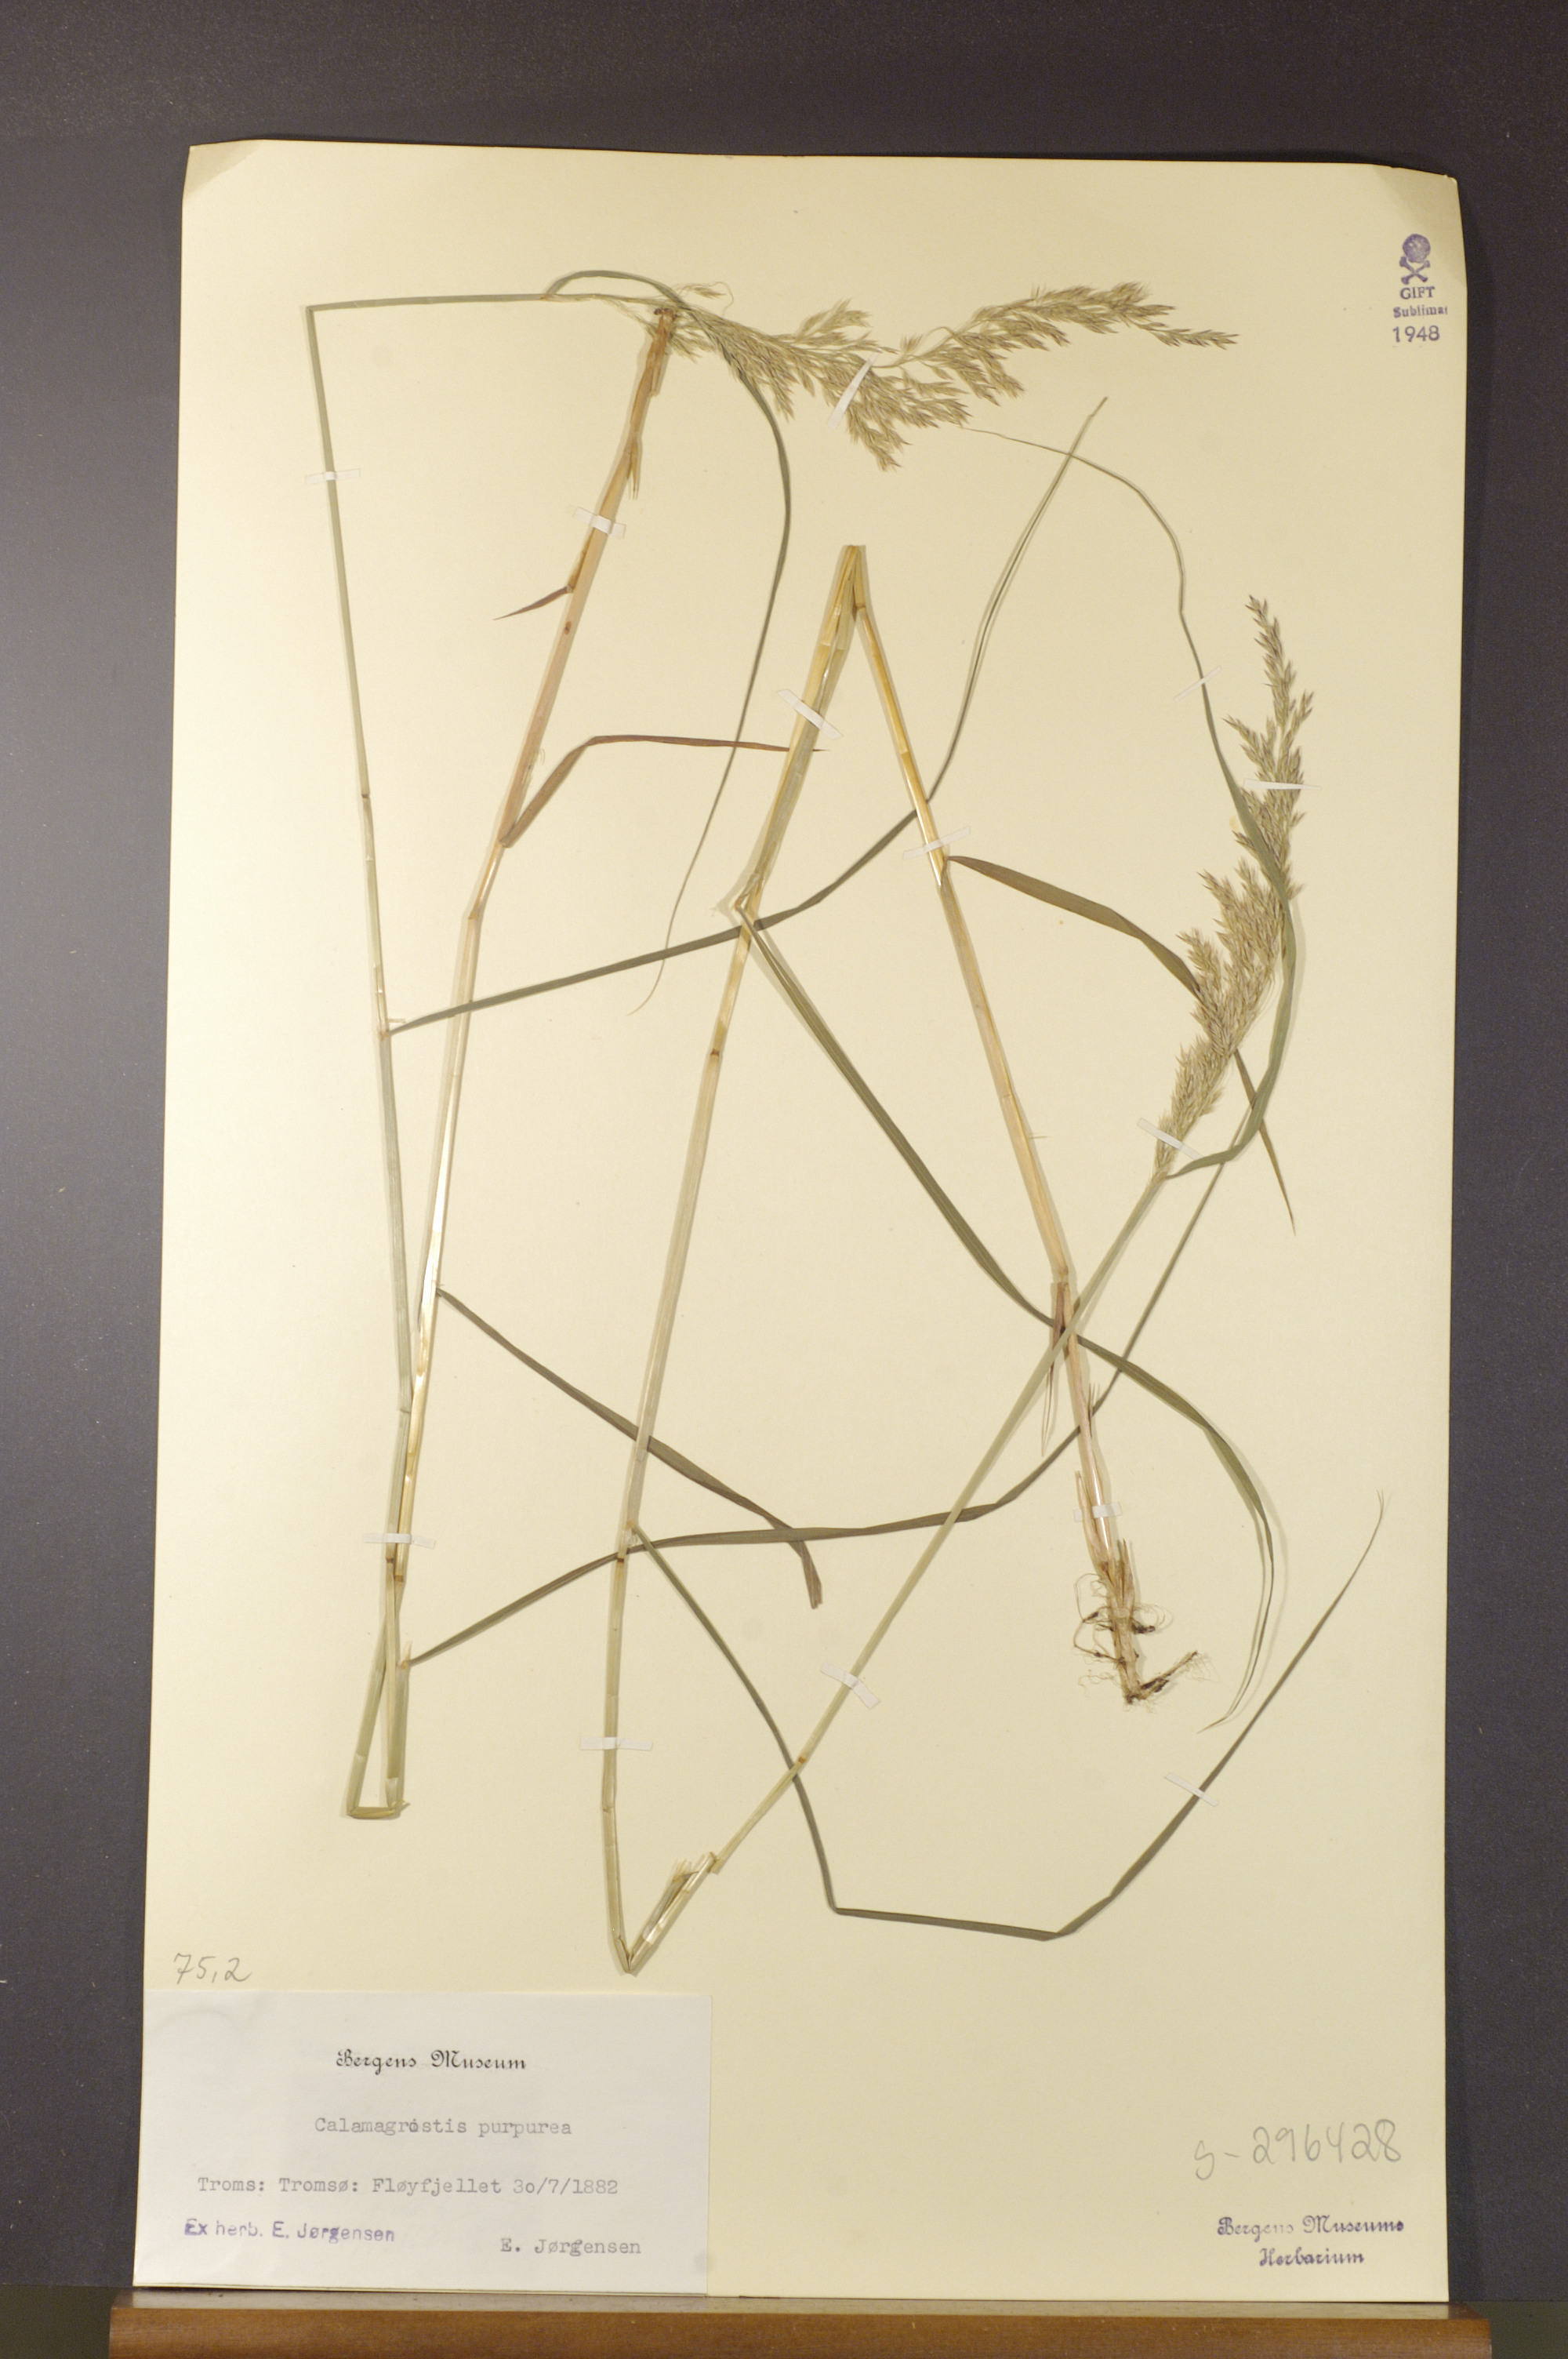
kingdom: Plantae
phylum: Tracheophyta
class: Liliopsida
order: Poales
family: Poaceae
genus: Calamagrostis
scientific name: Calamagrostis purpurea
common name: Scandinavian small-reed
